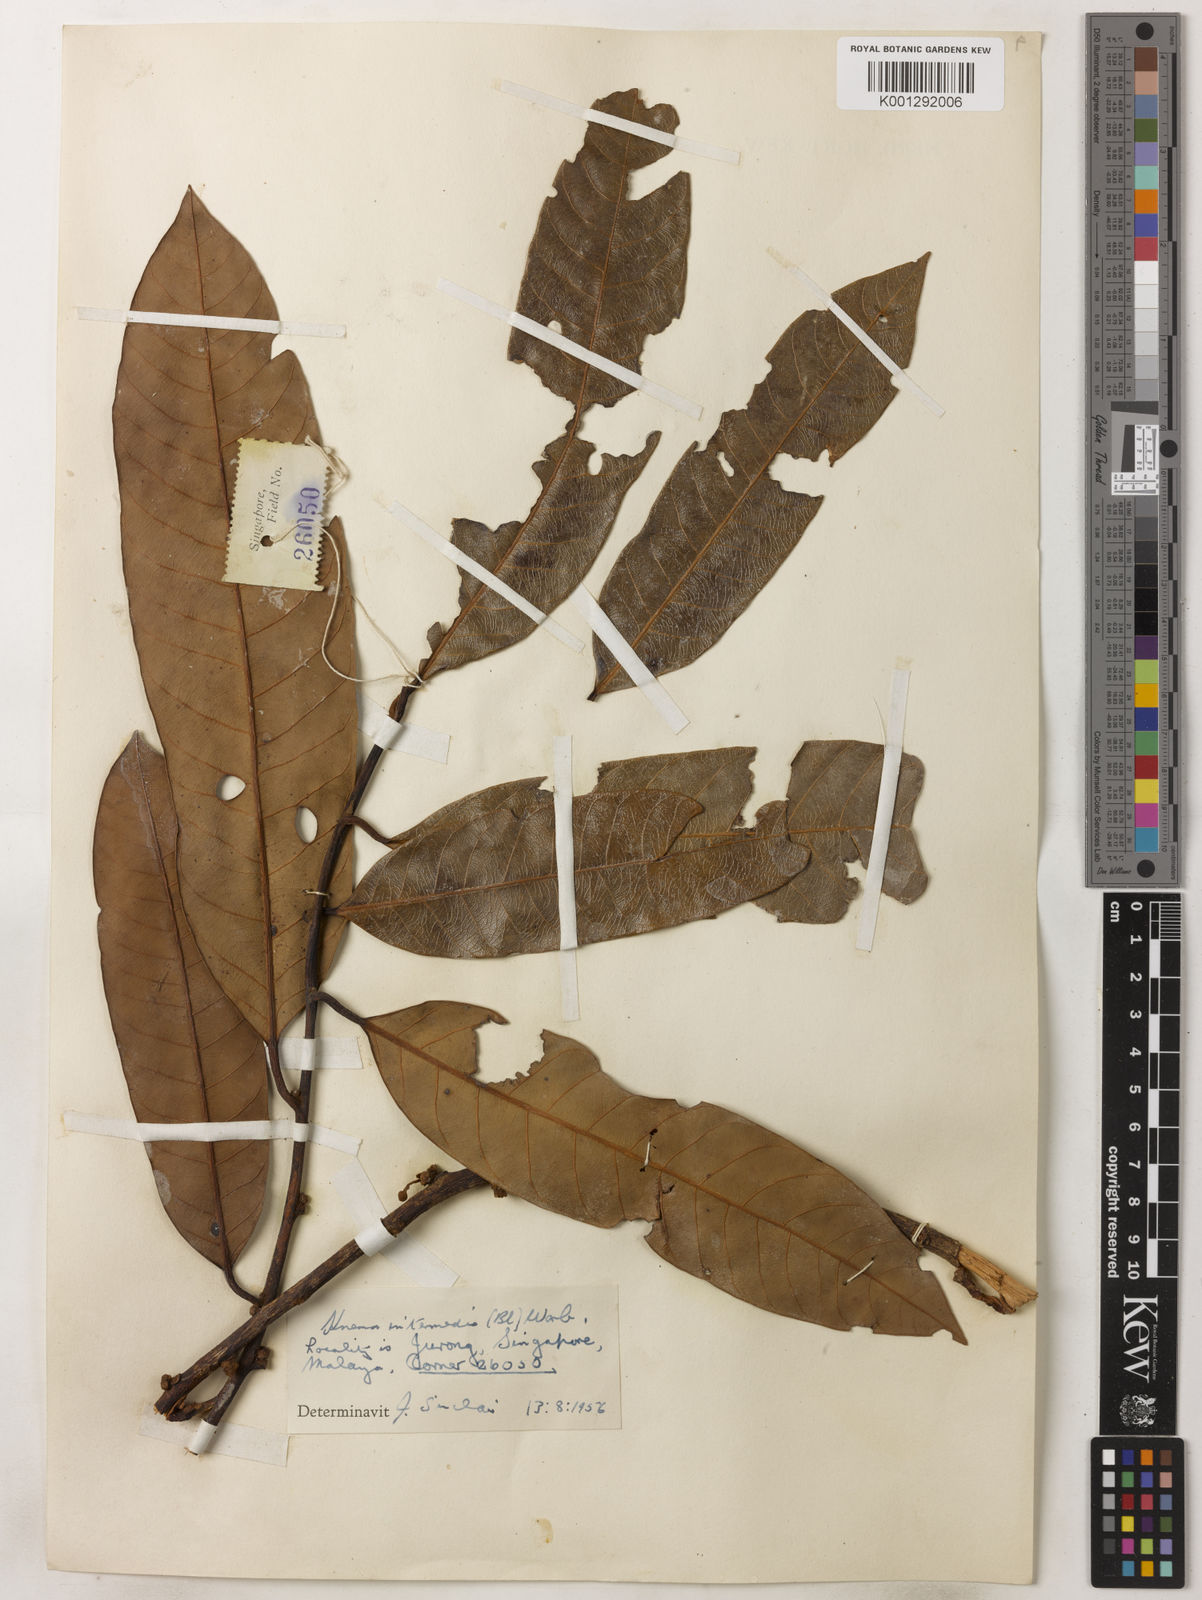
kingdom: Plantae
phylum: Tracheophyta
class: Magnoliopsida
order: Magnoliales
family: Myristicaceae
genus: Knema
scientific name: Knema intermedia
